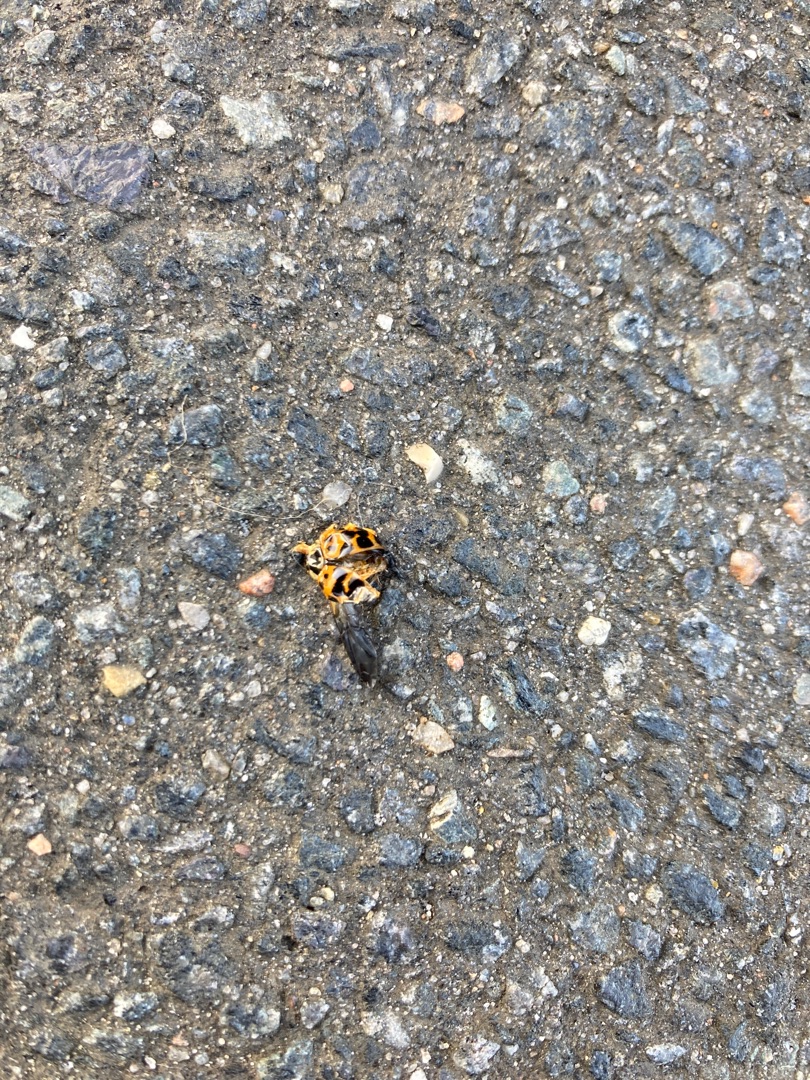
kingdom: Animalia
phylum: Arthropoda
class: Insecta
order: Coleoptera
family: Coccinellidae
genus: Harmonia
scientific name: Harmonia axyridis
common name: Harlekinmariehøne
